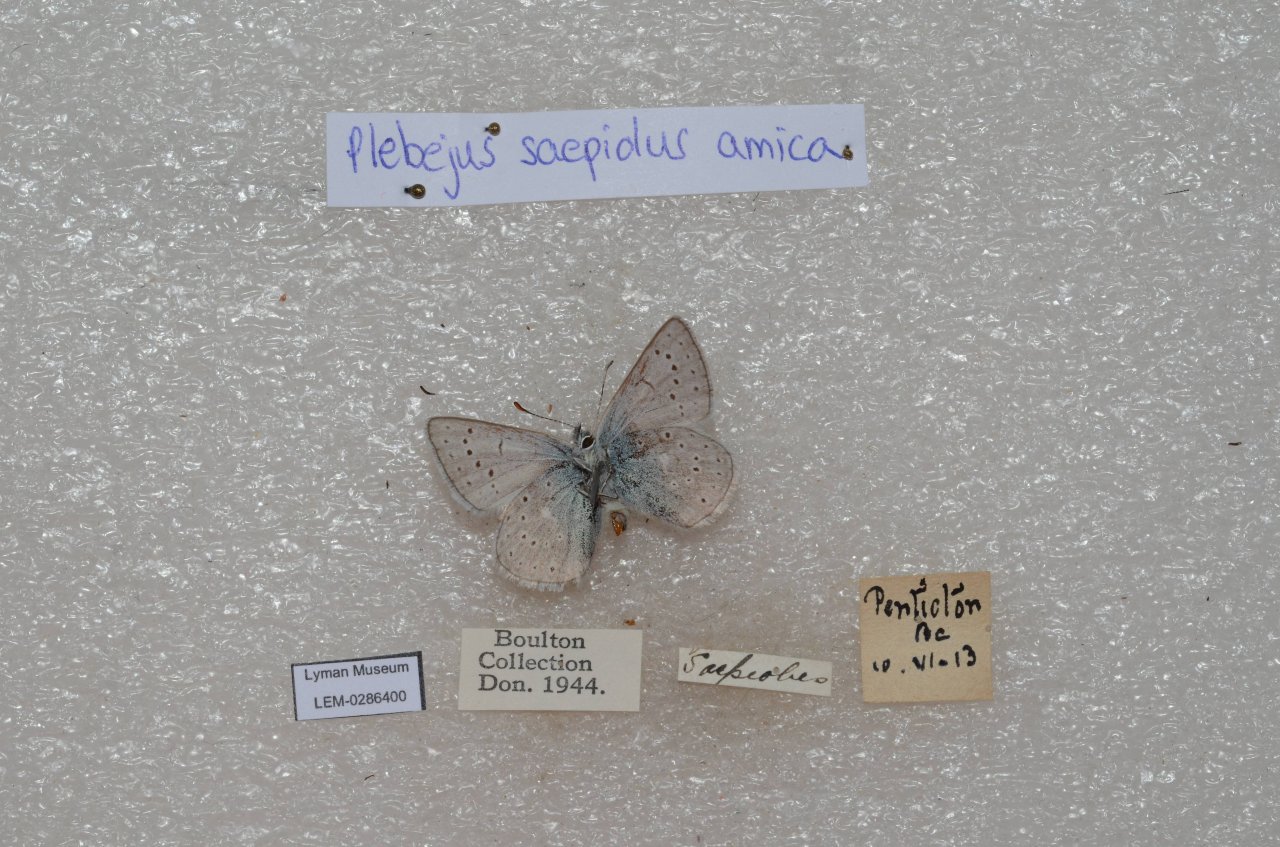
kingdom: Animalia
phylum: Arthropoda
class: Insecta
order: Lepidoptera
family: Lycaenidae
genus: Plebejus
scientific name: Plebejus saepiolus
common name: Greenish Blue
